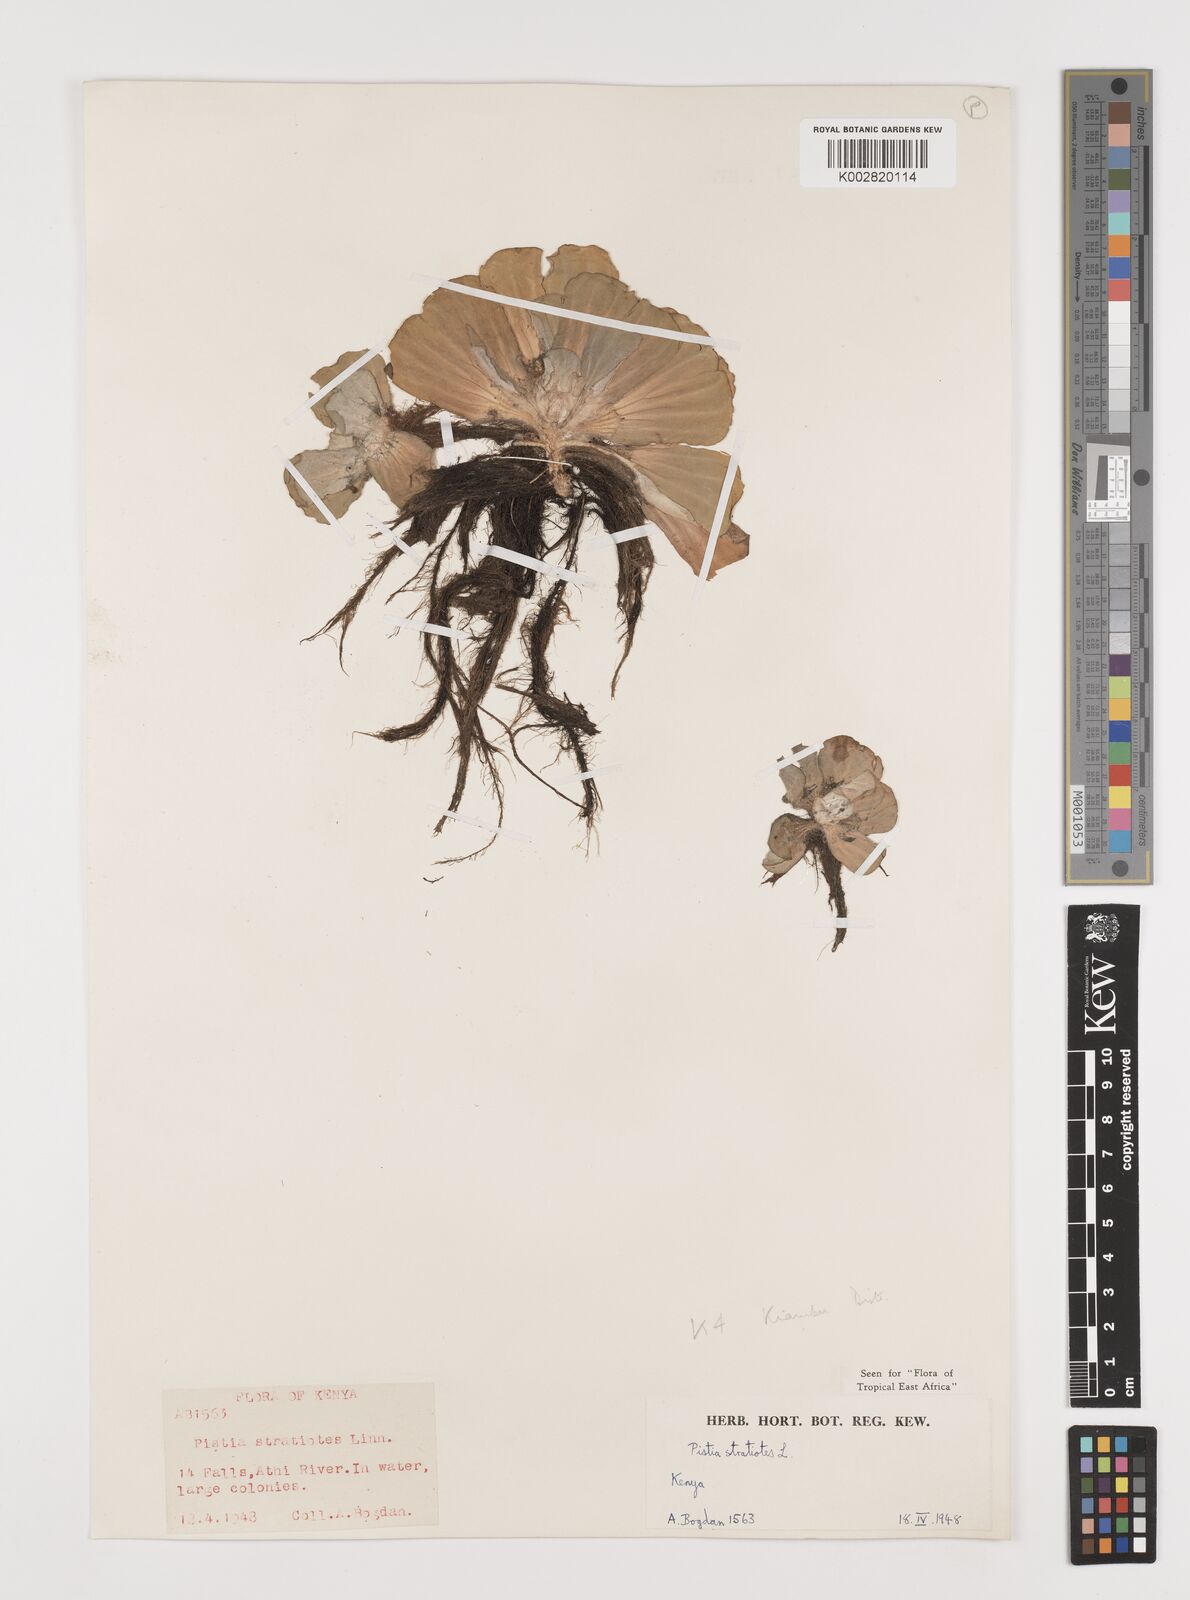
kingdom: Plantae
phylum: Tracheophyta
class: Liliopsida
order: Alismatales
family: Araceae
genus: Pistia
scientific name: Pistia stratiotes
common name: Water lettuce
